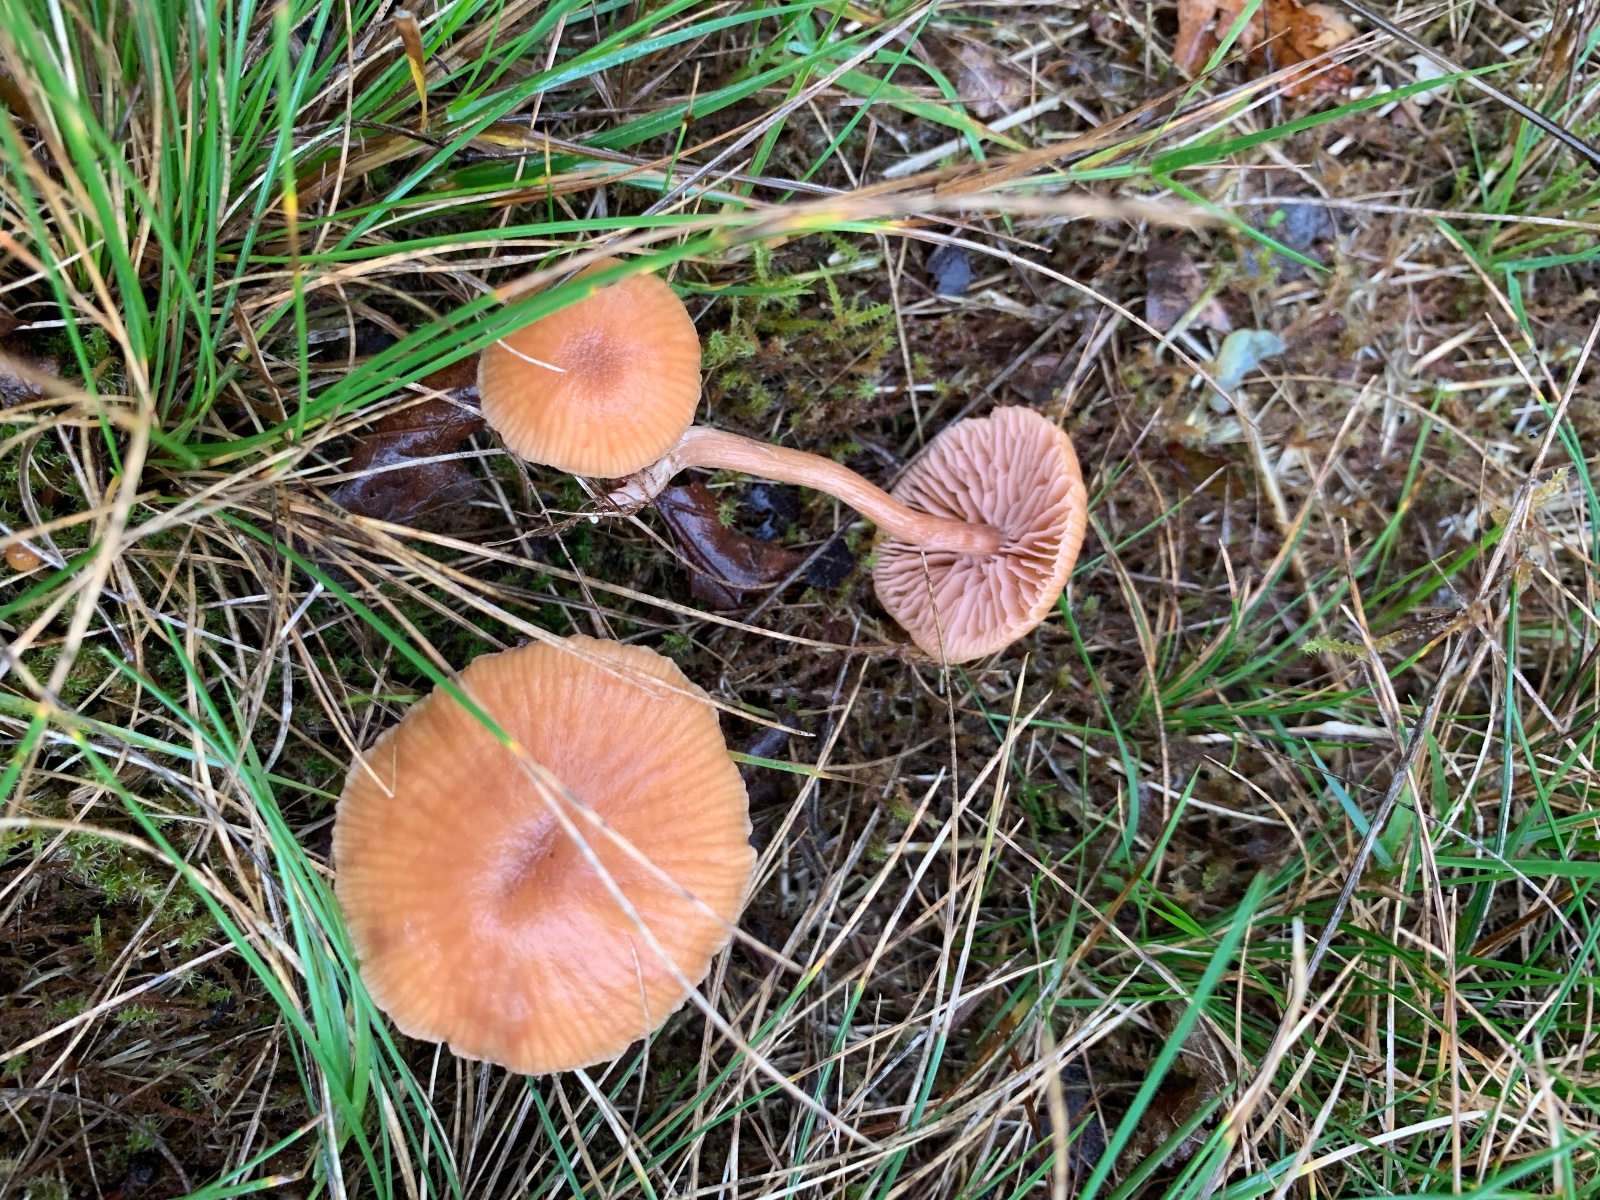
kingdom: Fungi
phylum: Basidiomycota
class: Agaricomycetes
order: Agaricales
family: Hydnangiaceae
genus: Laccaria
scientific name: Laccaria laccata
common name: rød ametysthat
